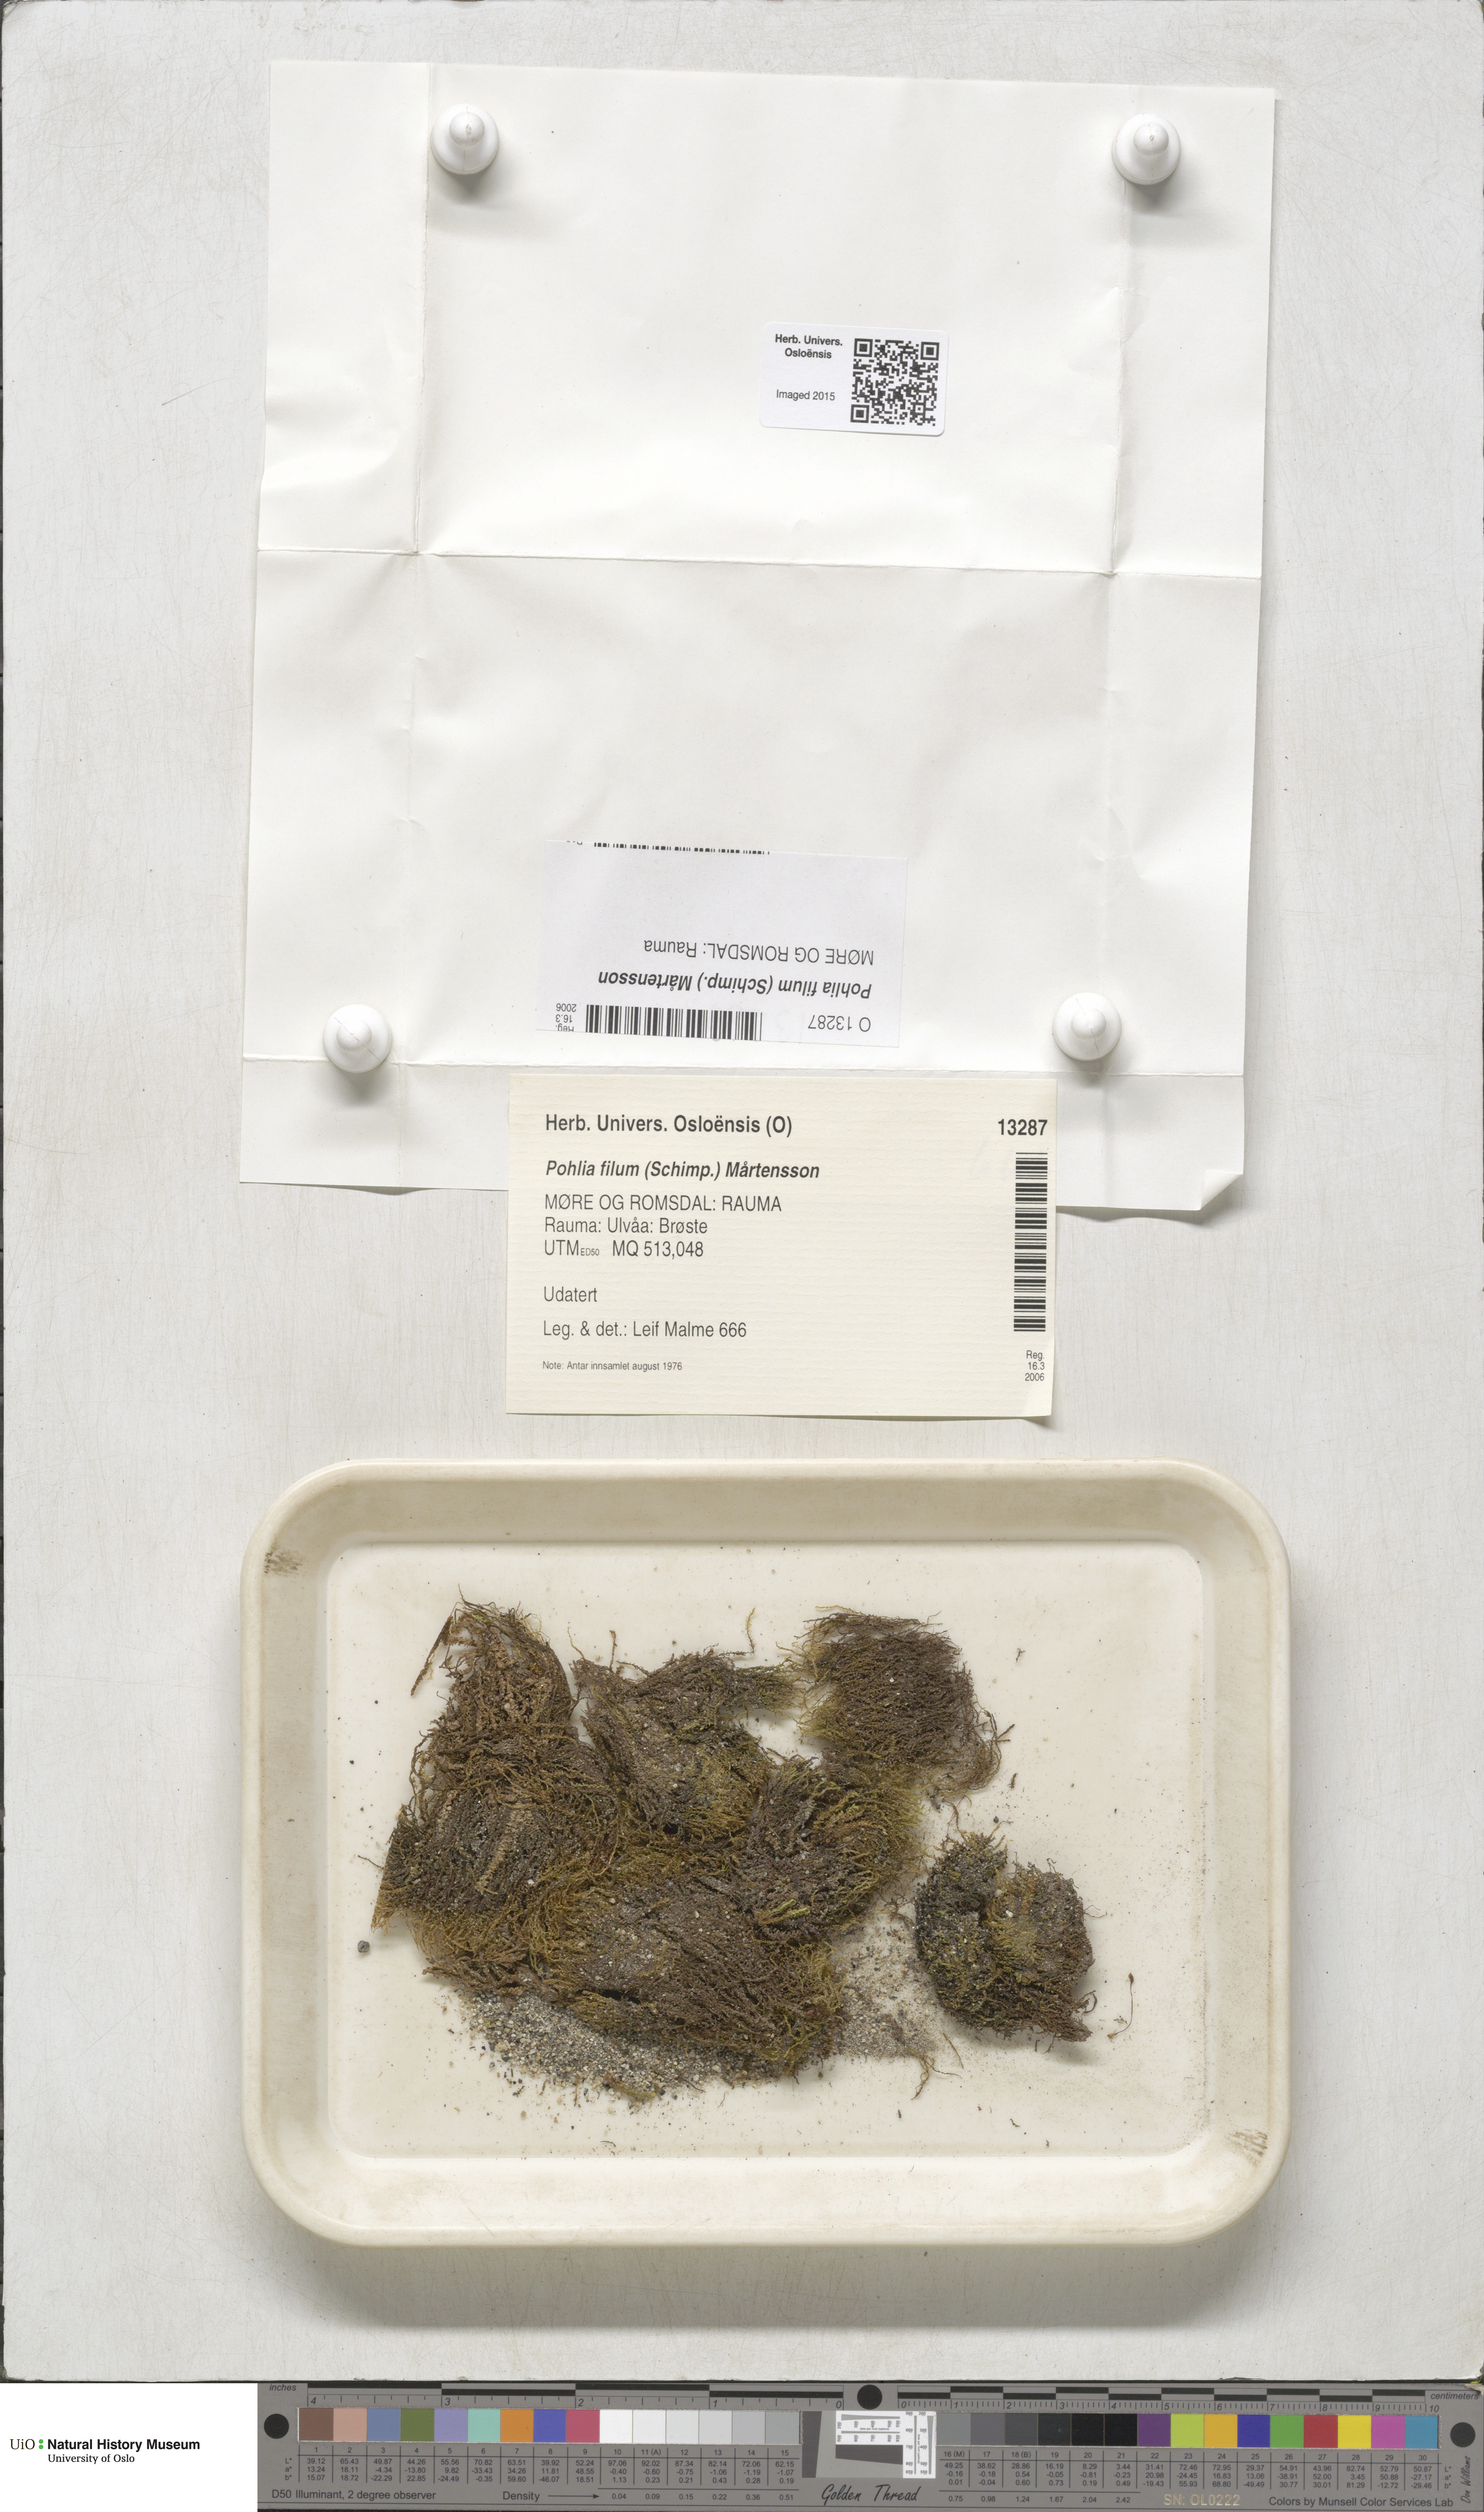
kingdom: Plantae
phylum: Bryophyta
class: Bryopsida
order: Bryales
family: Mniaceae
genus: Pohlia
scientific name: Pohlia filum
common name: Slender nodding moss
